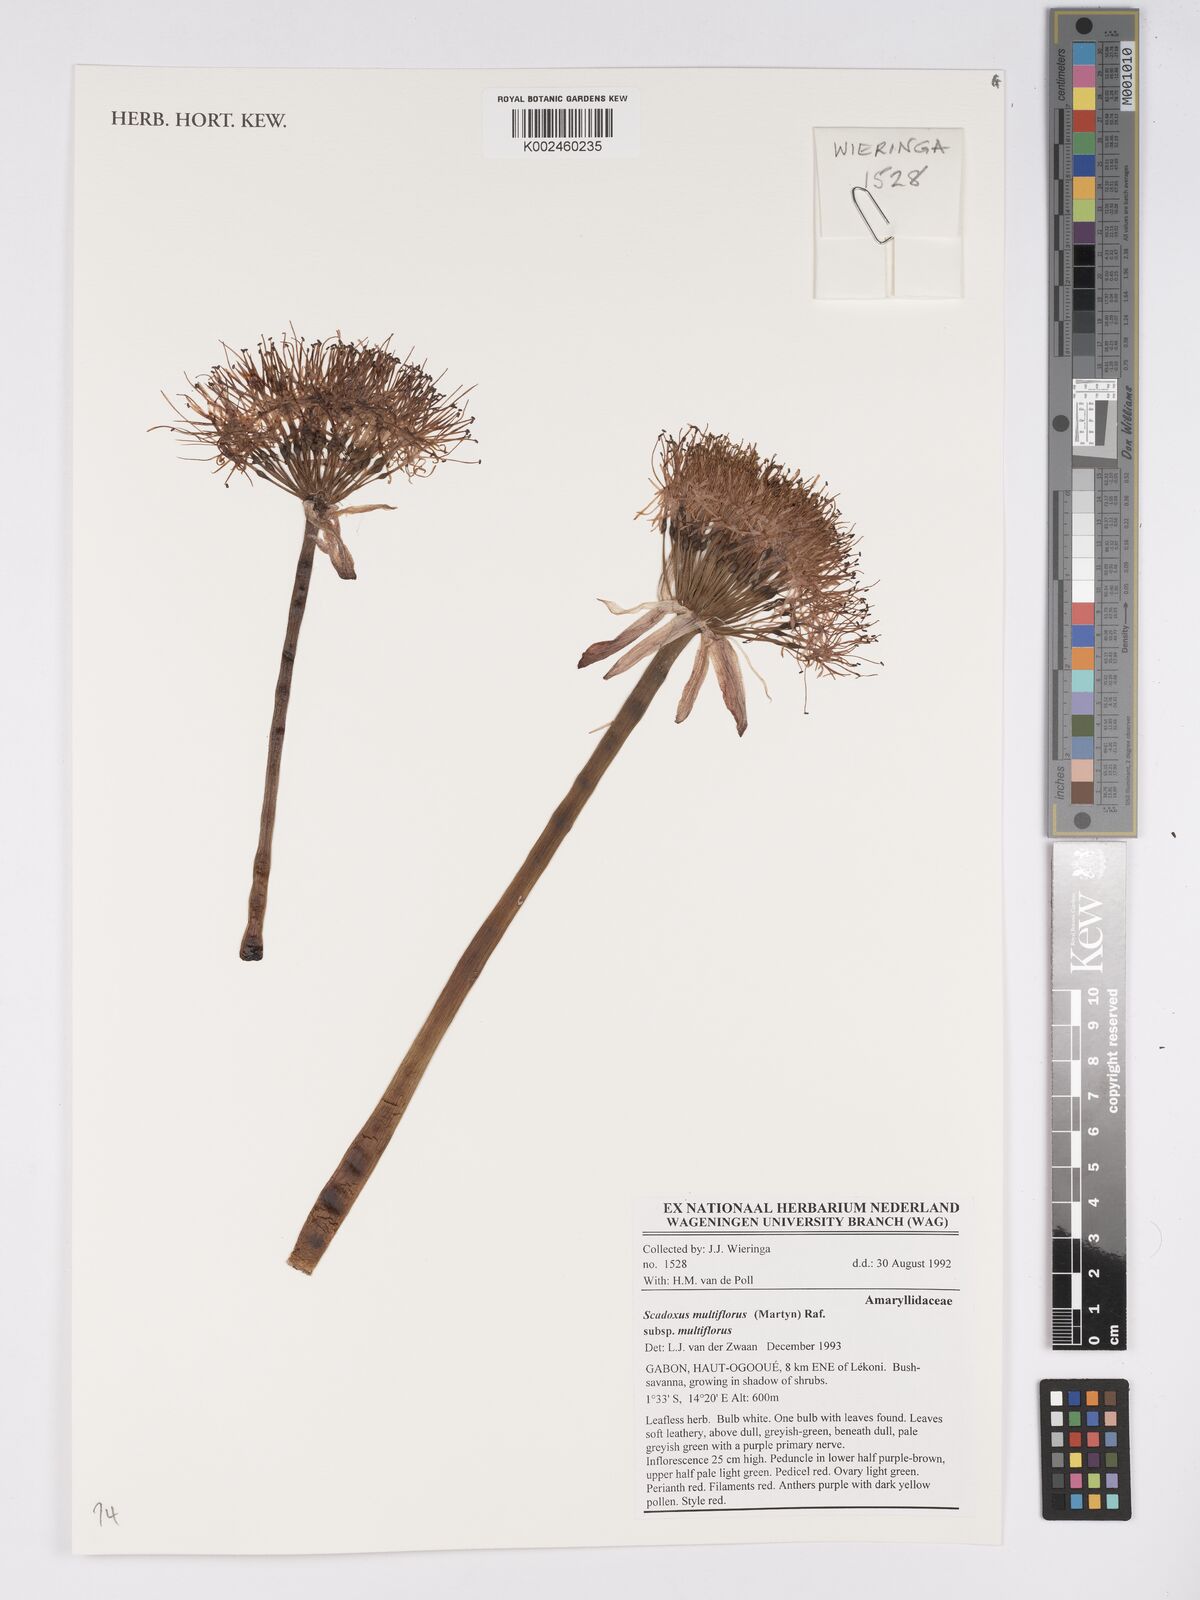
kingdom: Plantae
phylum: Tracheophyta
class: Liliopsida
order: Asparagales
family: Amaryllidaceae
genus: Scadoxus
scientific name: Scadoxus multiflorus
